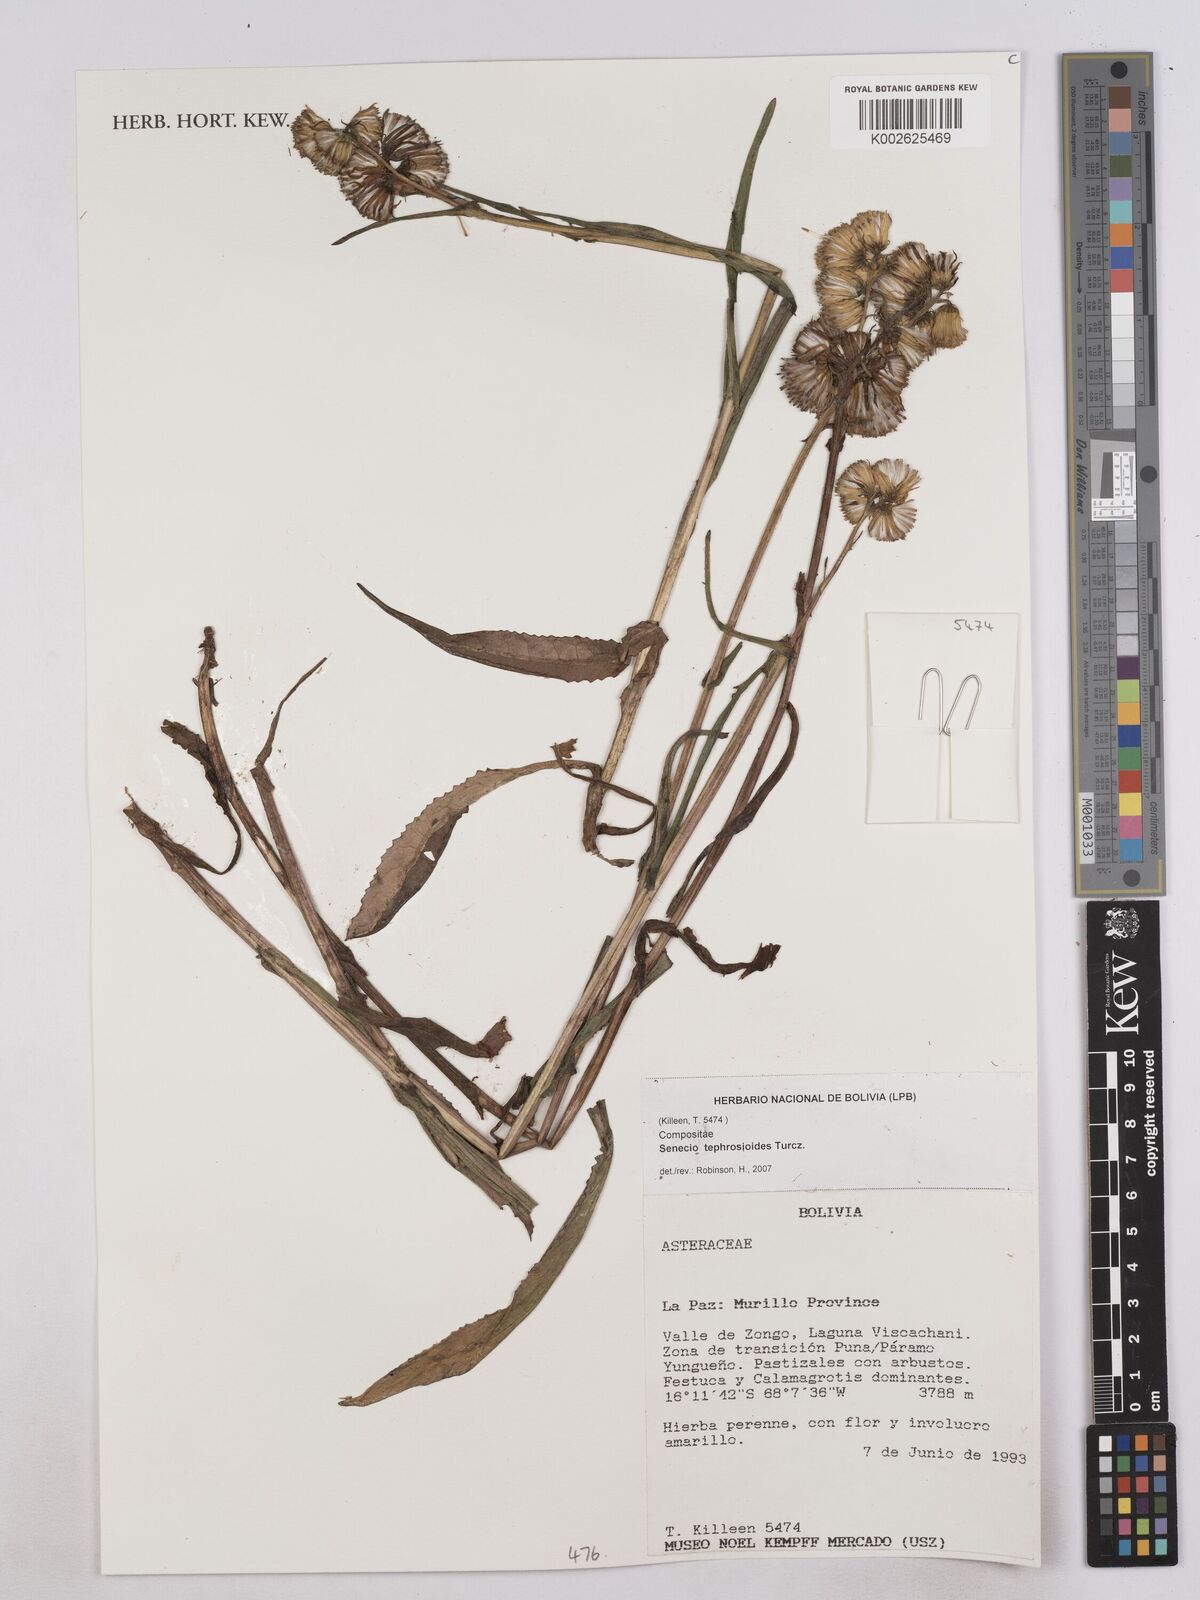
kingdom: Plantae
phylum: Tracheophyta
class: Magnoliopsida
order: Asterales
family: Asteraceae
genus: Culcitium
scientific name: Culcitium canescens
